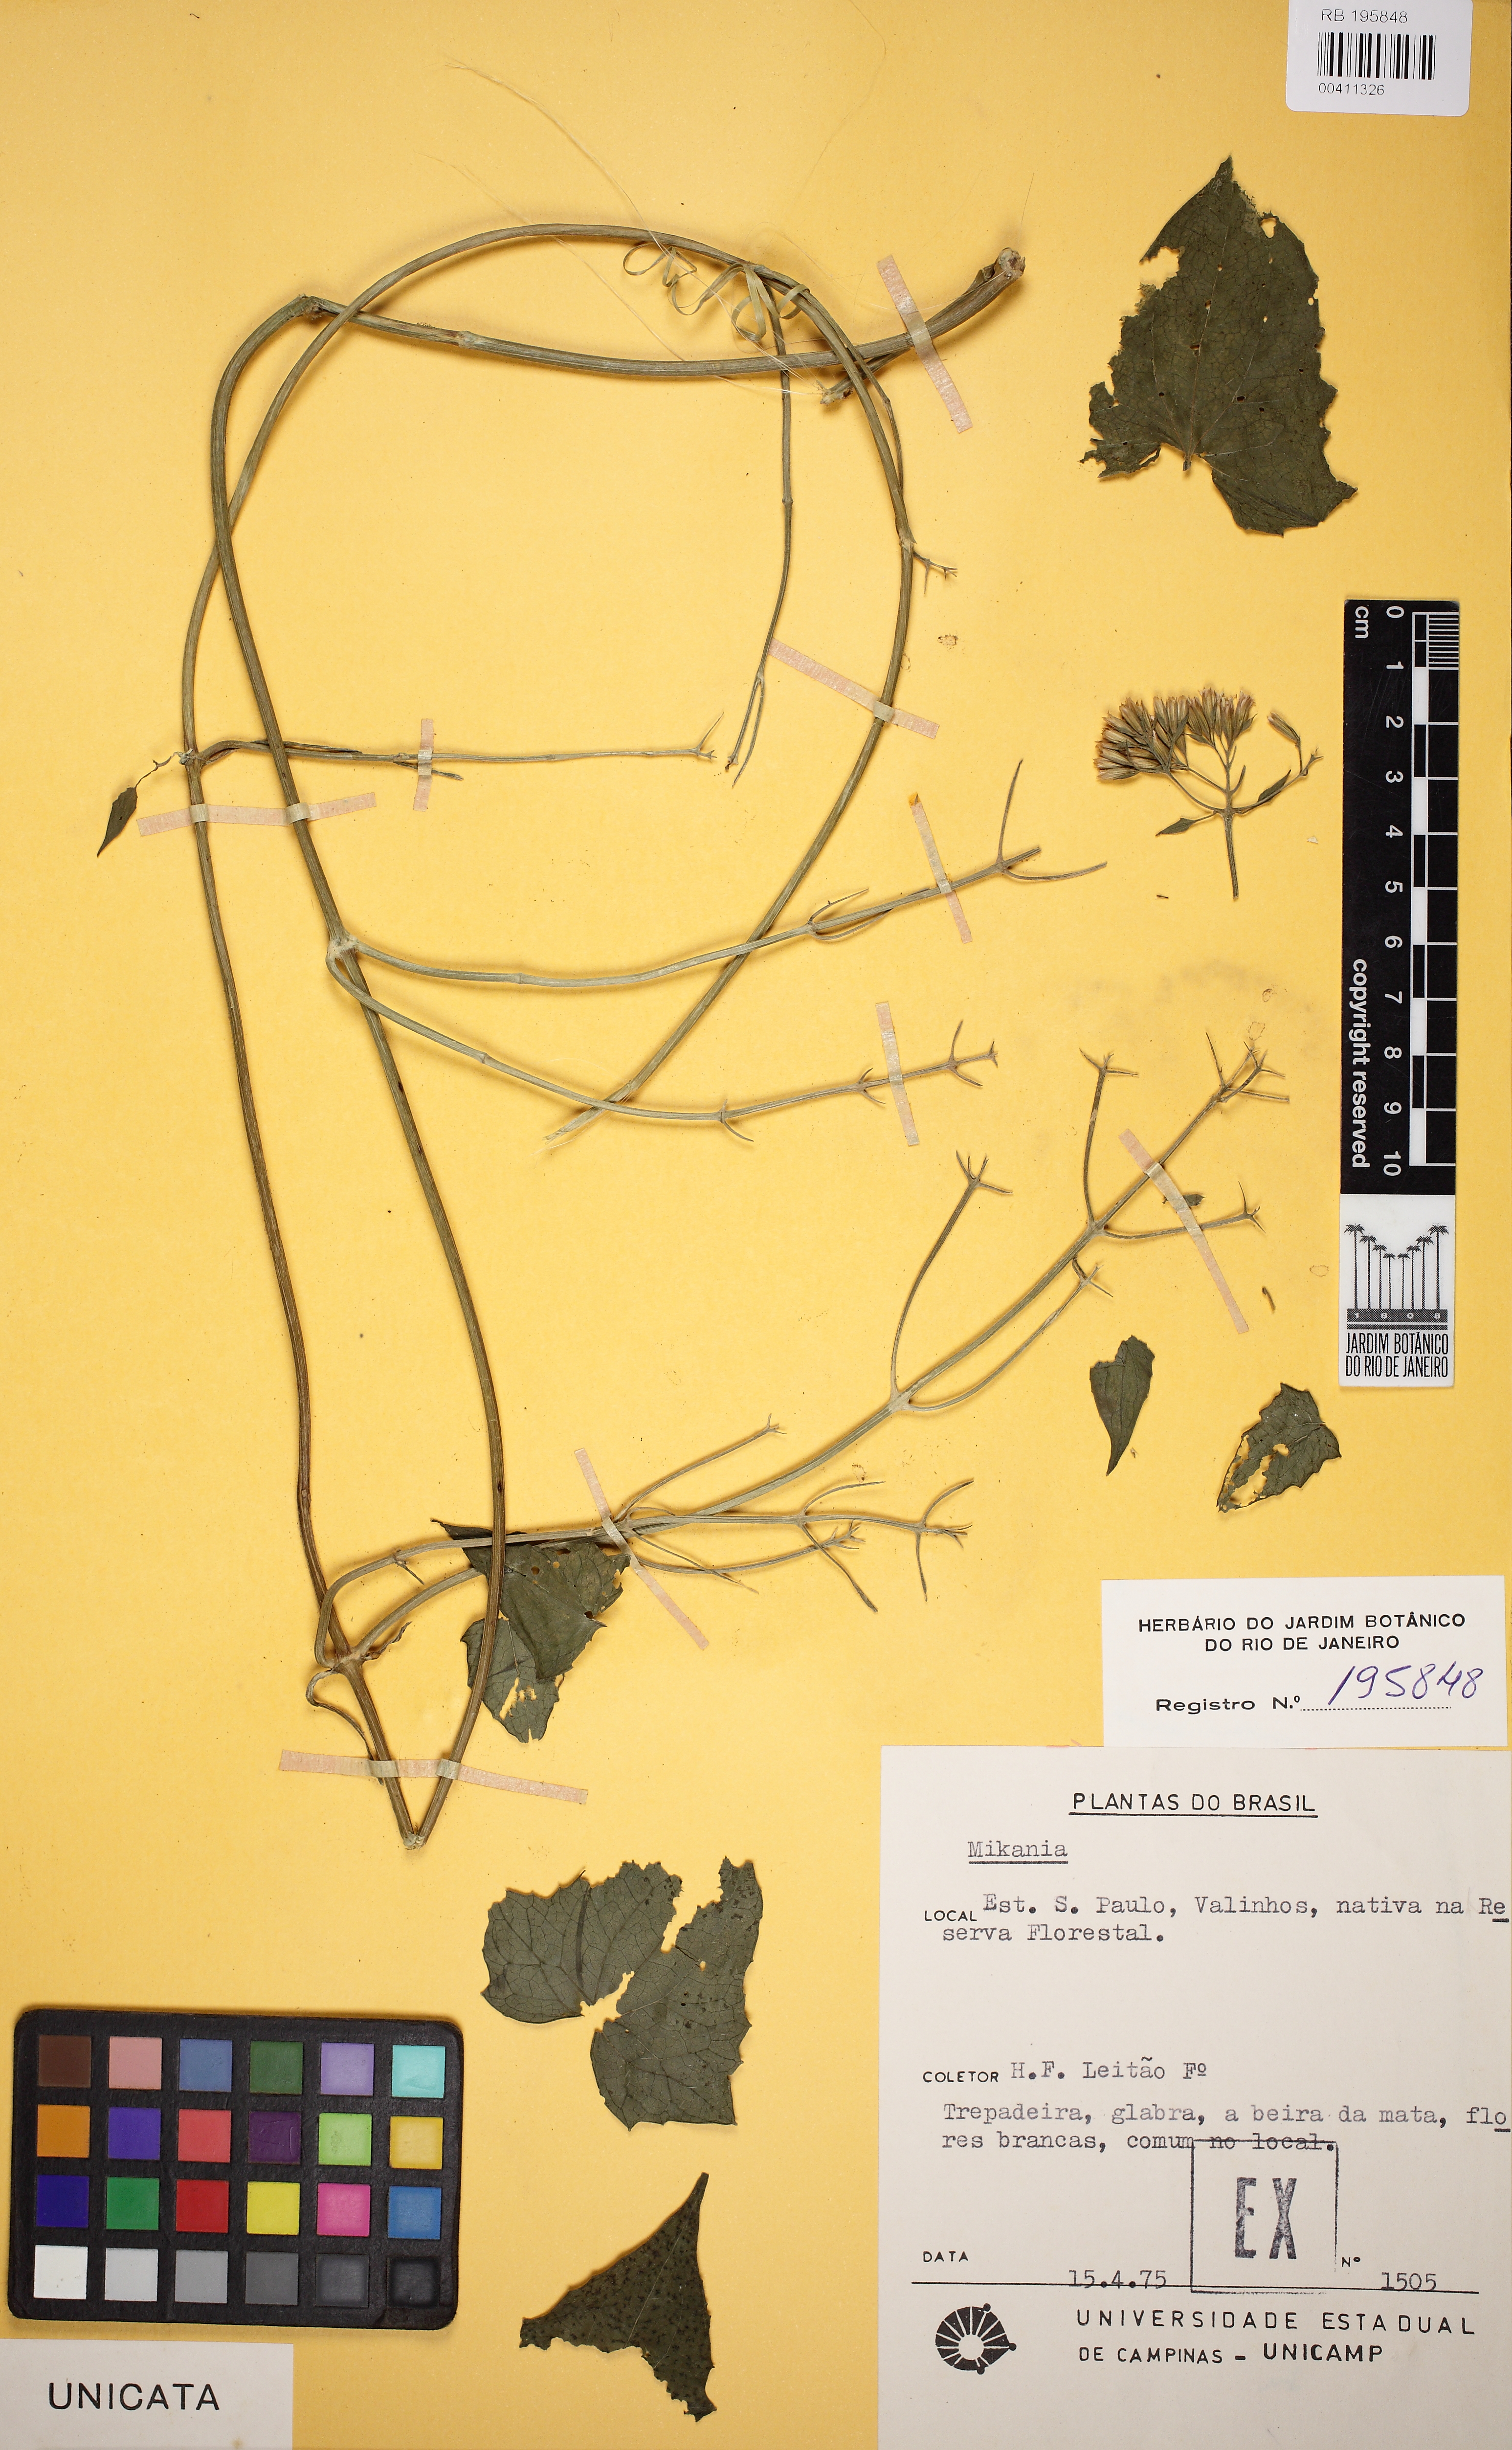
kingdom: Plantae
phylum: Tracheophyta
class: Magnoliopsida
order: Asterales
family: Asteraceae
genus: Mikania
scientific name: Mikania
